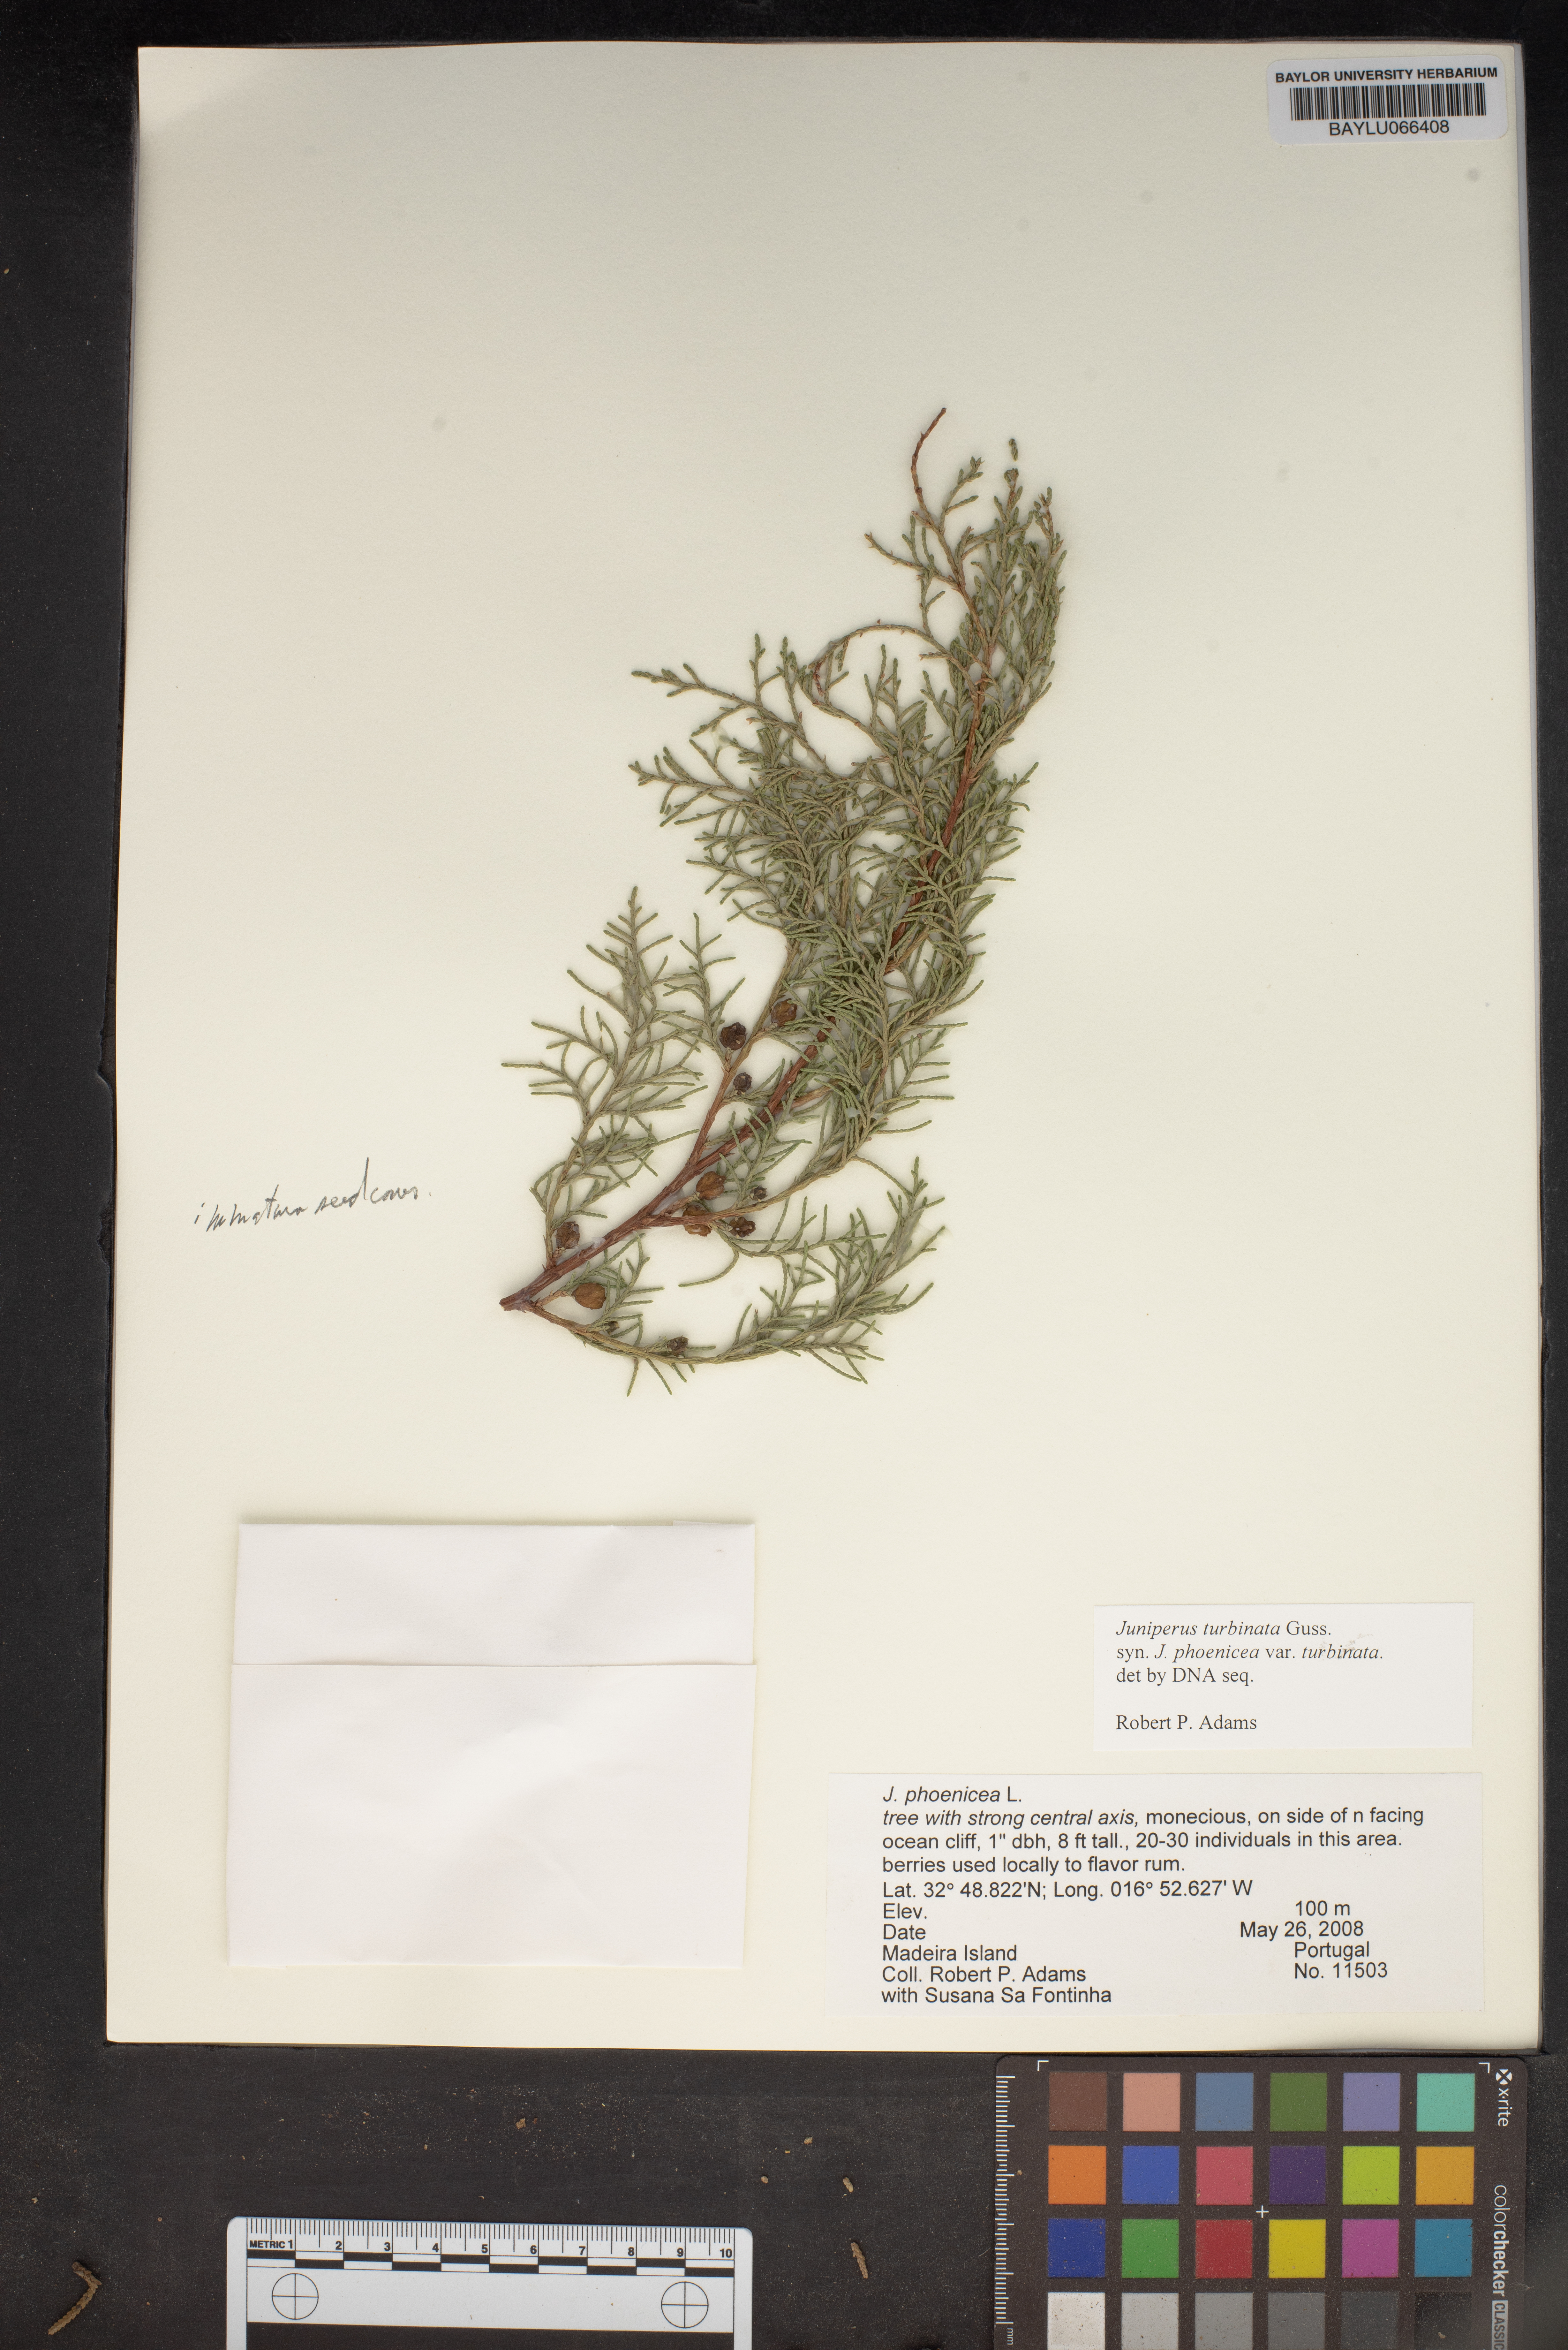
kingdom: Plantae
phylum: Tracheophyta
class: Pinopsida
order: Pinales
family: Cupressaceae
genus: Juniperus
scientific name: Juniperus phoenicea
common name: Phoenician juniper
